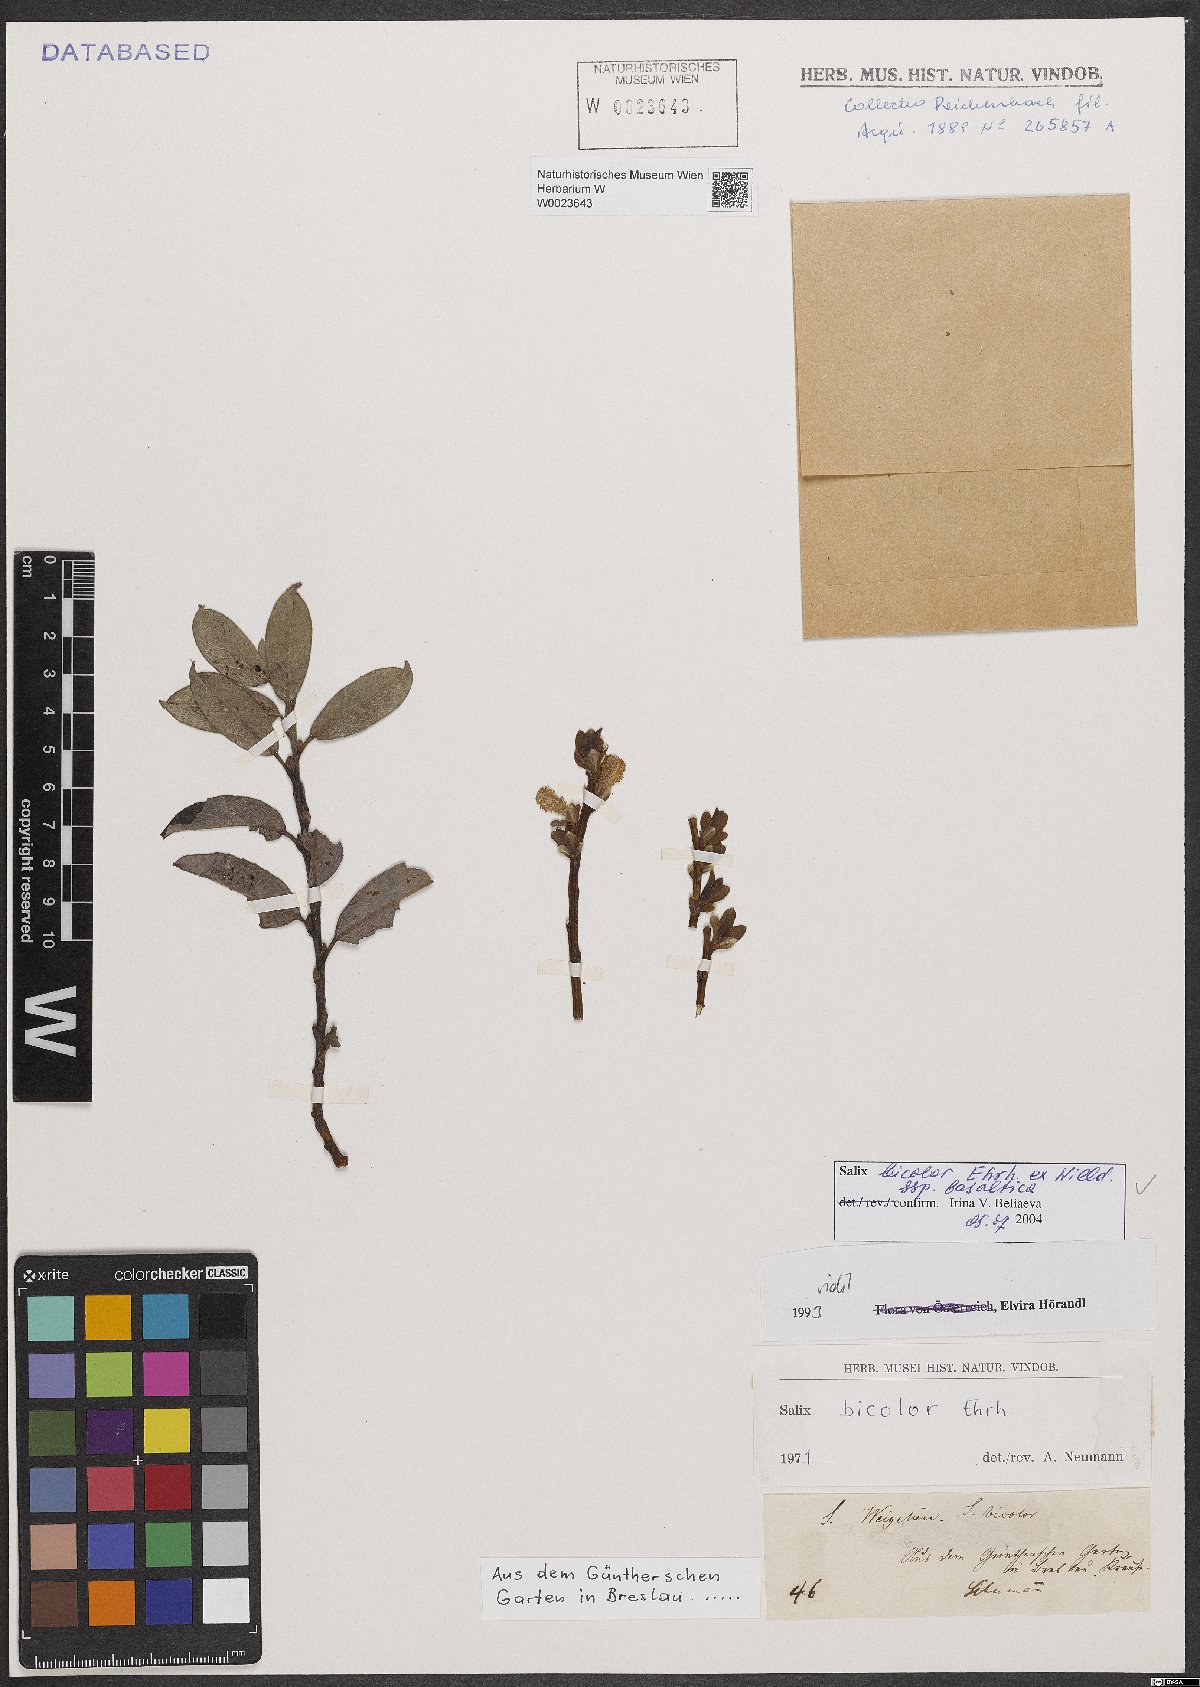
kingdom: Plantae
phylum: Tracheophyta
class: Magnoliopsida
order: Malpighiales
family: Salicaceae
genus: Salix
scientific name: Salix basaltica
